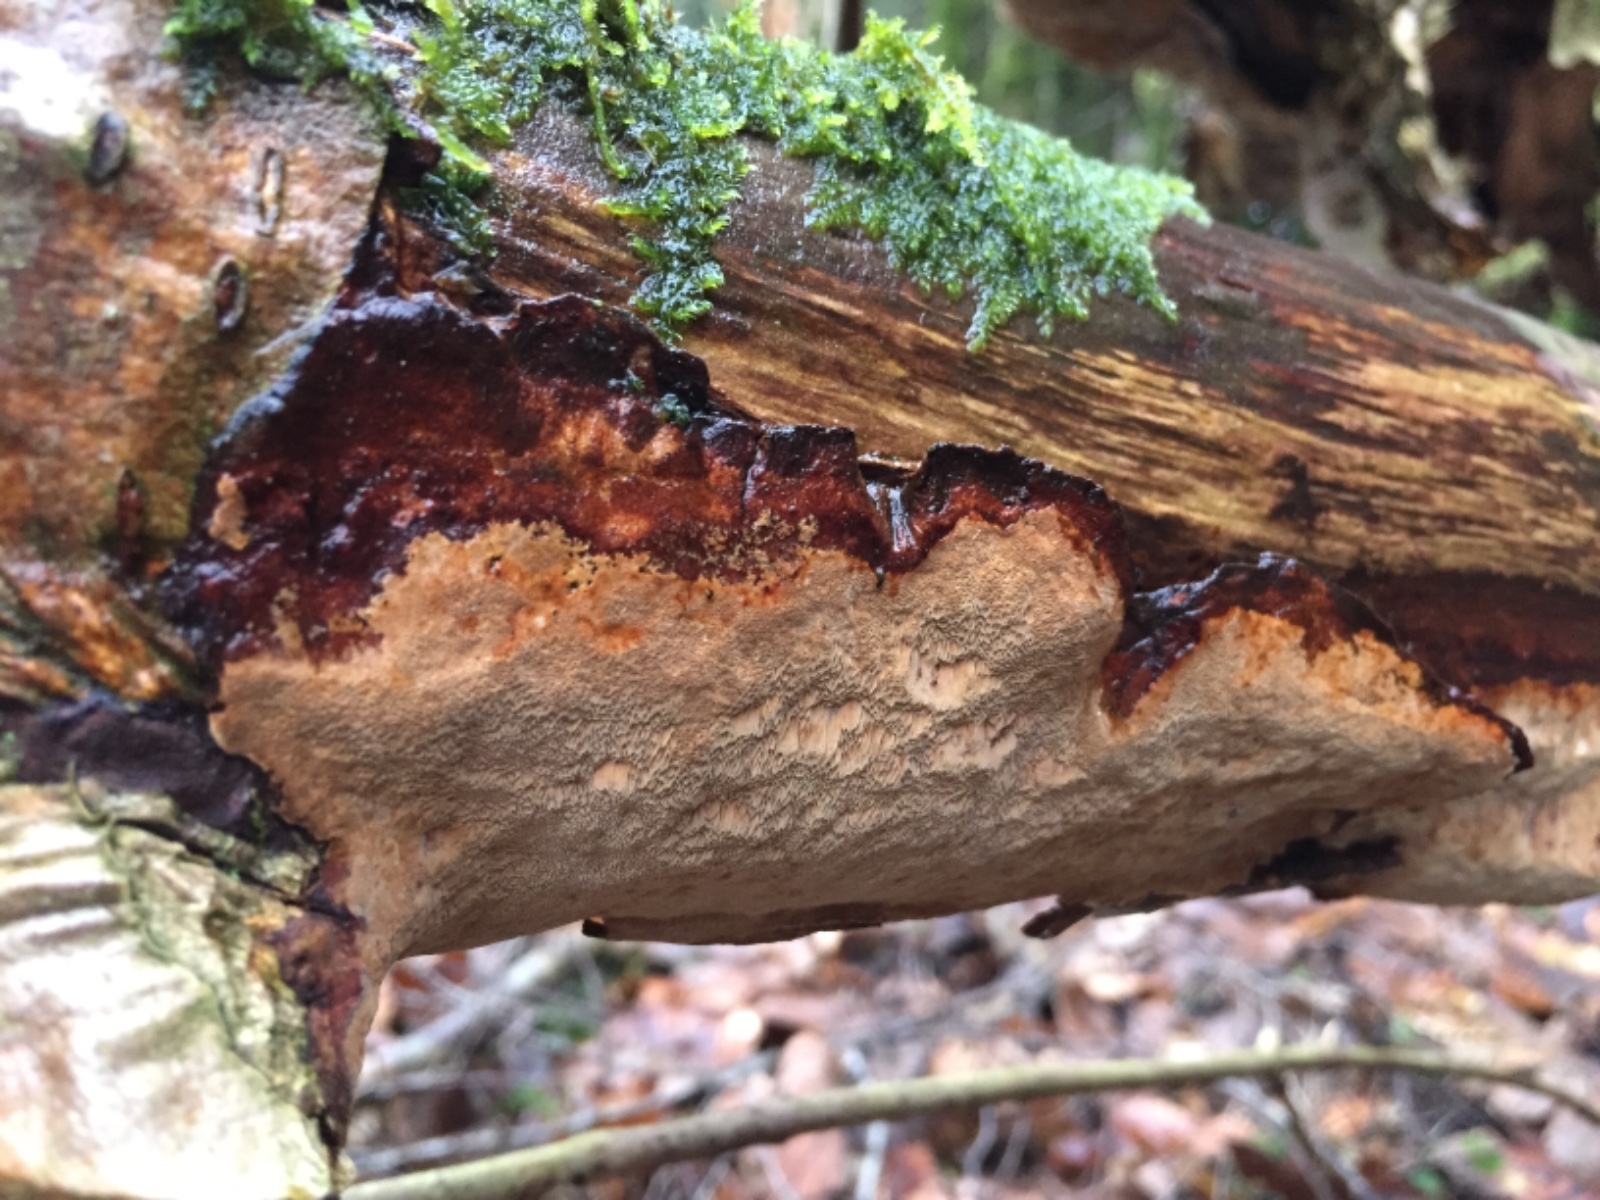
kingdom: Fungi
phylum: Basidiomycota
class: Agaricomycetes
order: Hymenochaetales
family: Hymenochaetaceae
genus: Fuscoporia
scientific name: Fuscoporia ferrea
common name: skorpe-ildporesvamp
